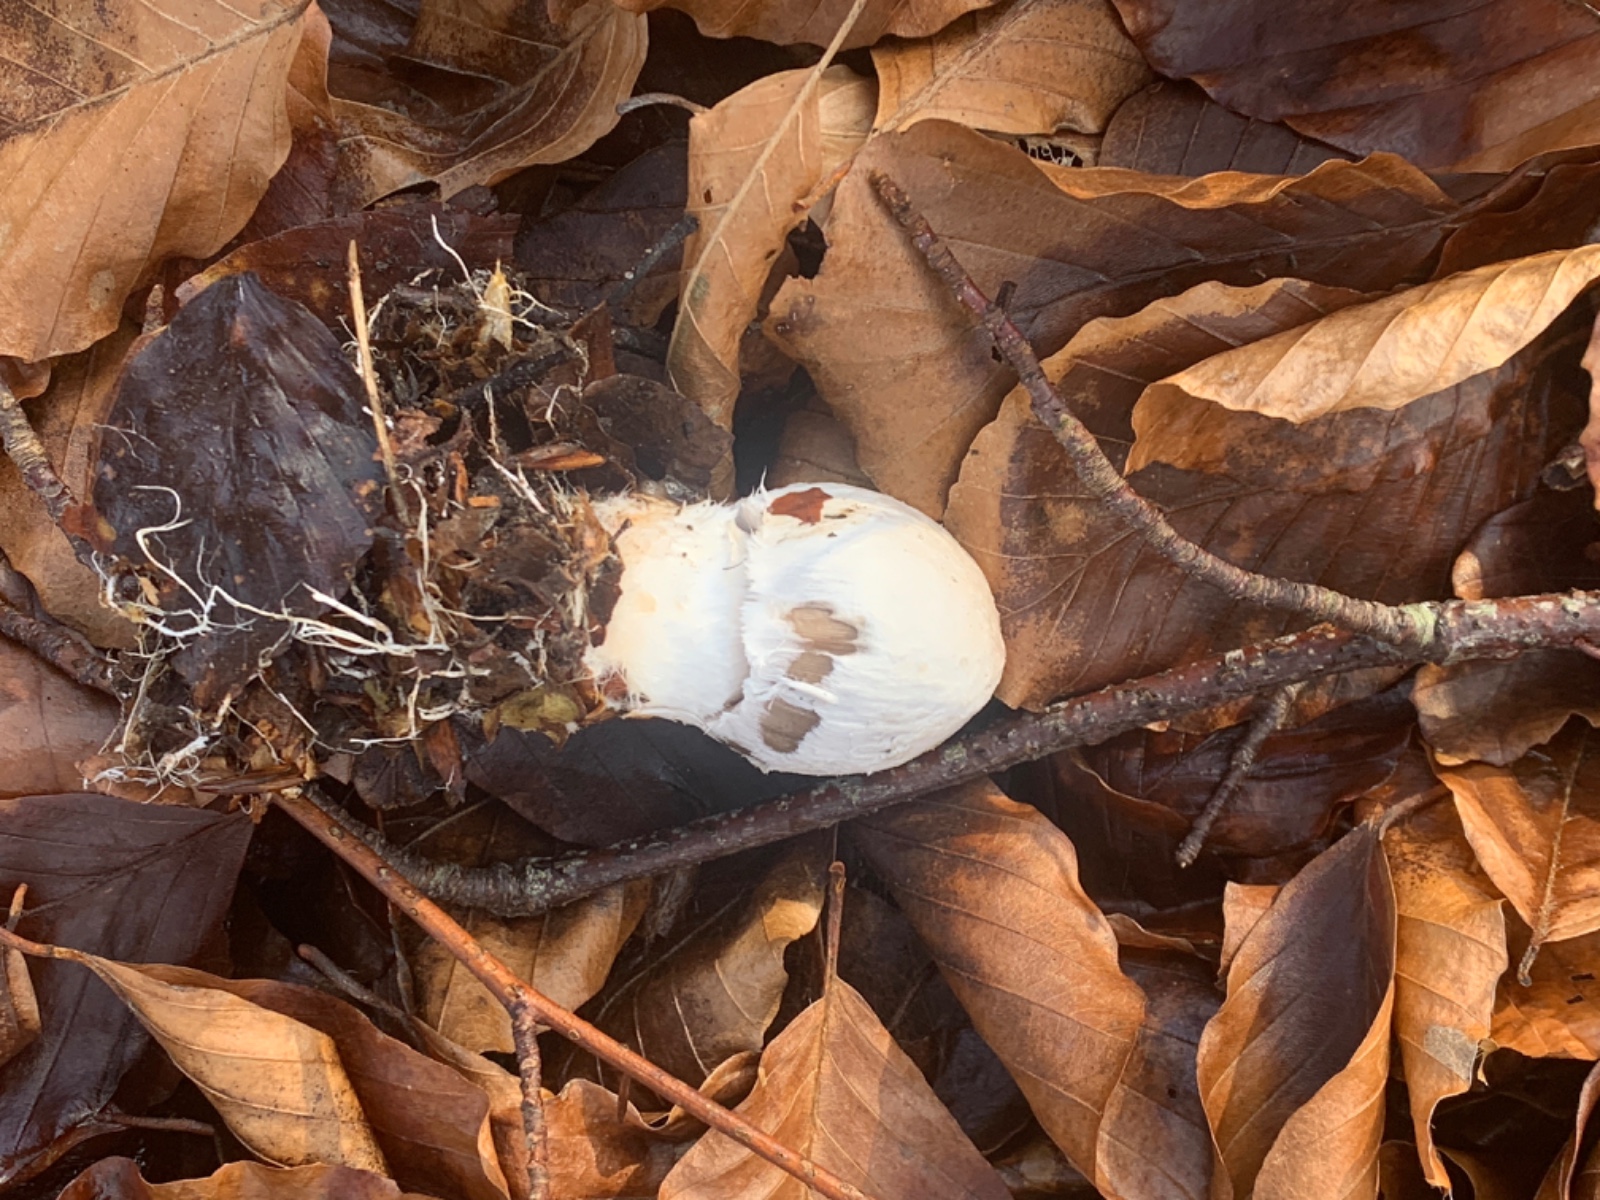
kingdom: Fungi
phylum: Basidiomycota
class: Agaricomycetes
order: Agaricales
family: Psathyrellaceae
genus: Coprinopsis
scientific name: Coprinopsis picacea
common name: skade-blækhat
